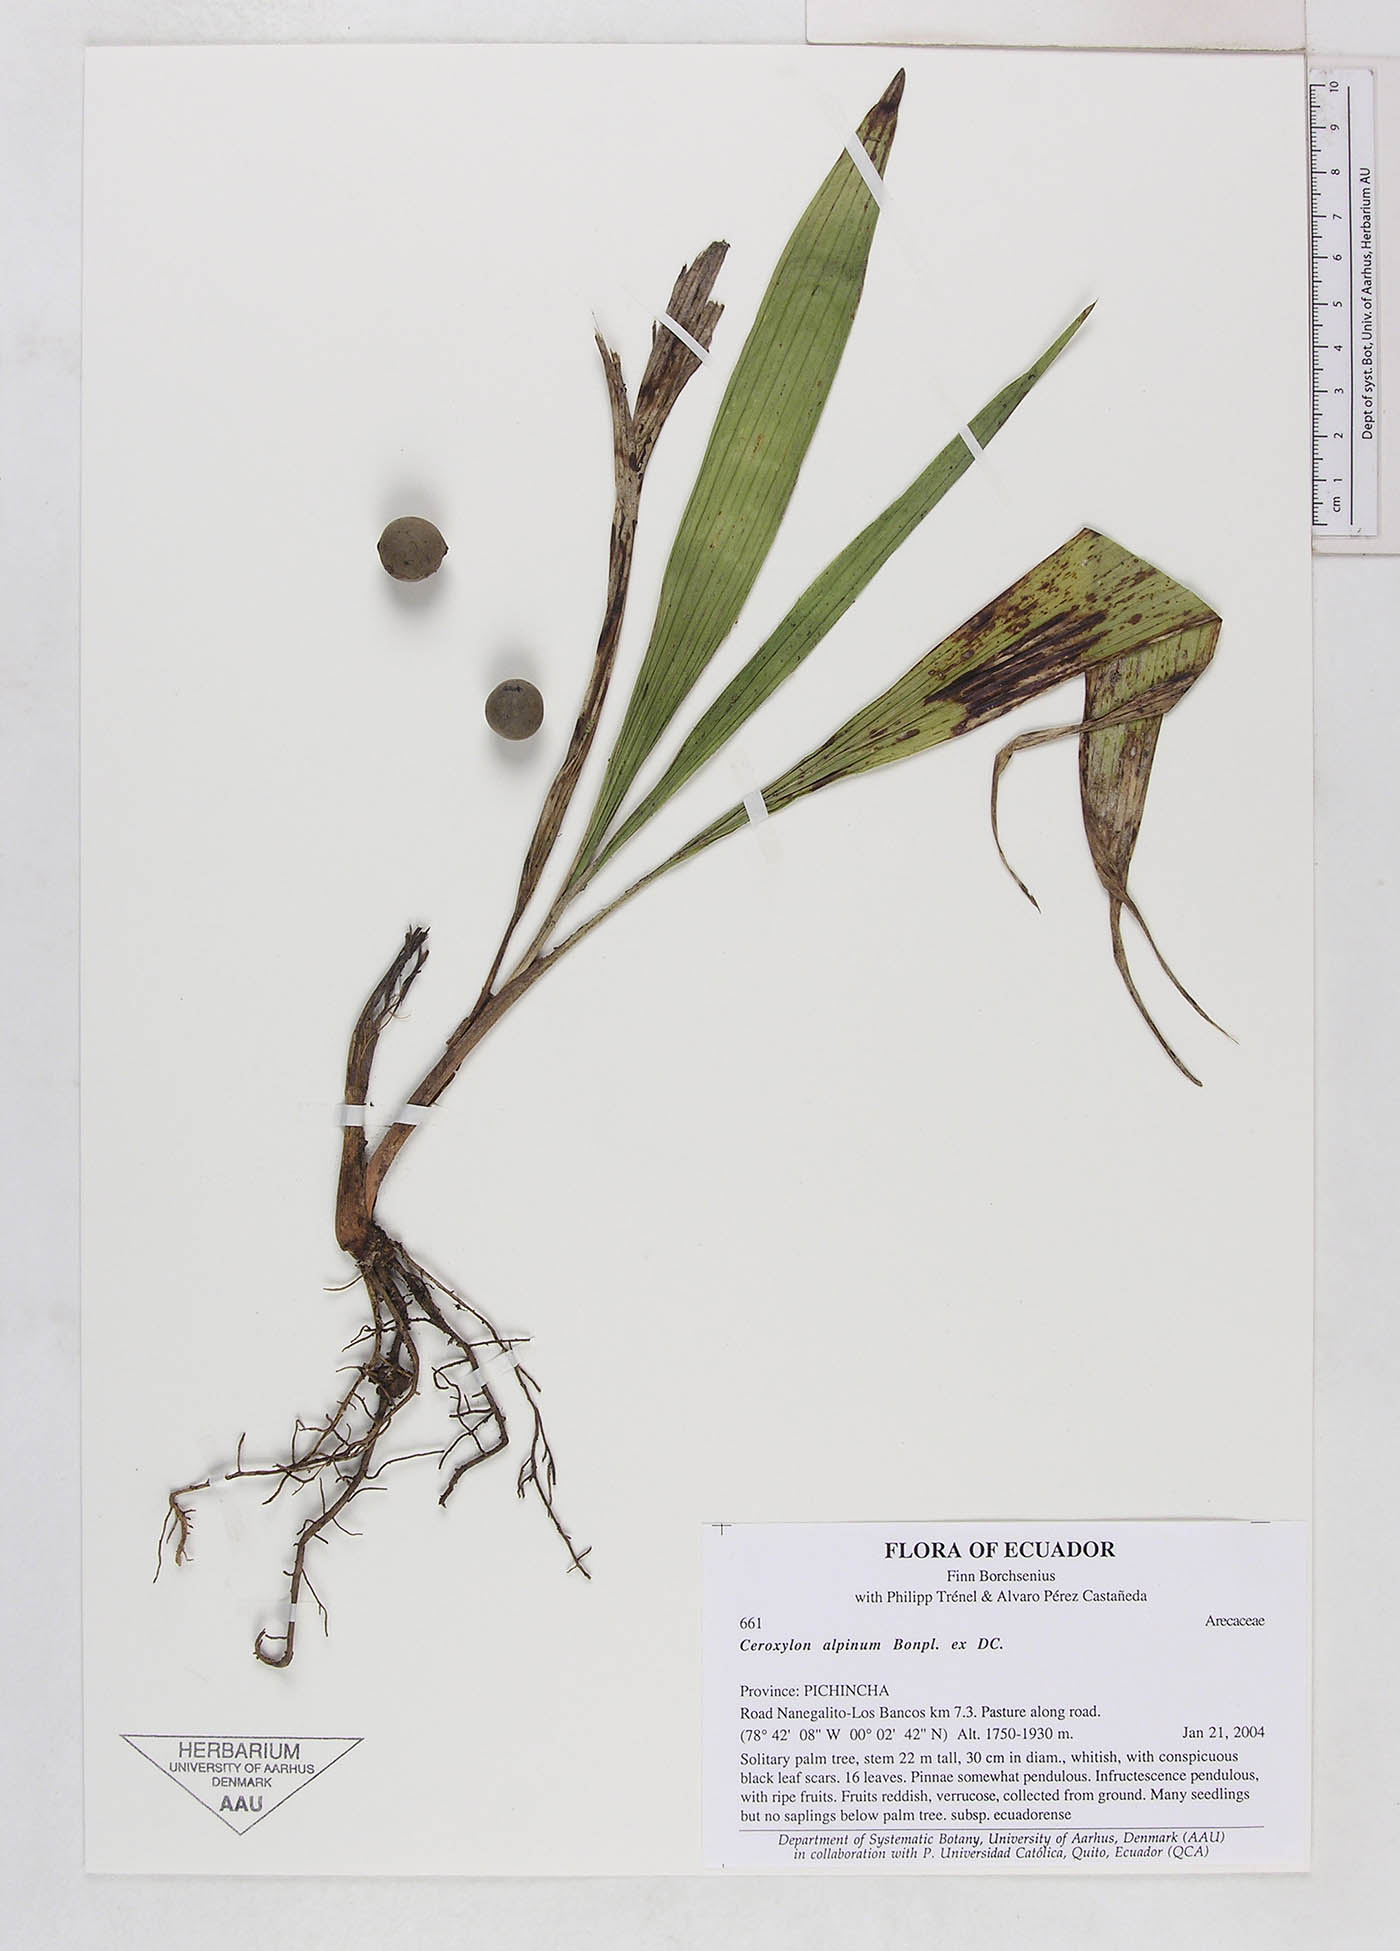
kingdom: Plantae
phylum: Tracheophyta
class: Liliopsida
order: Arecales
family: Arecaceae
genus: Ceroxylon
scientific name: Ceroxylon alpinum
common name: Wax palm
